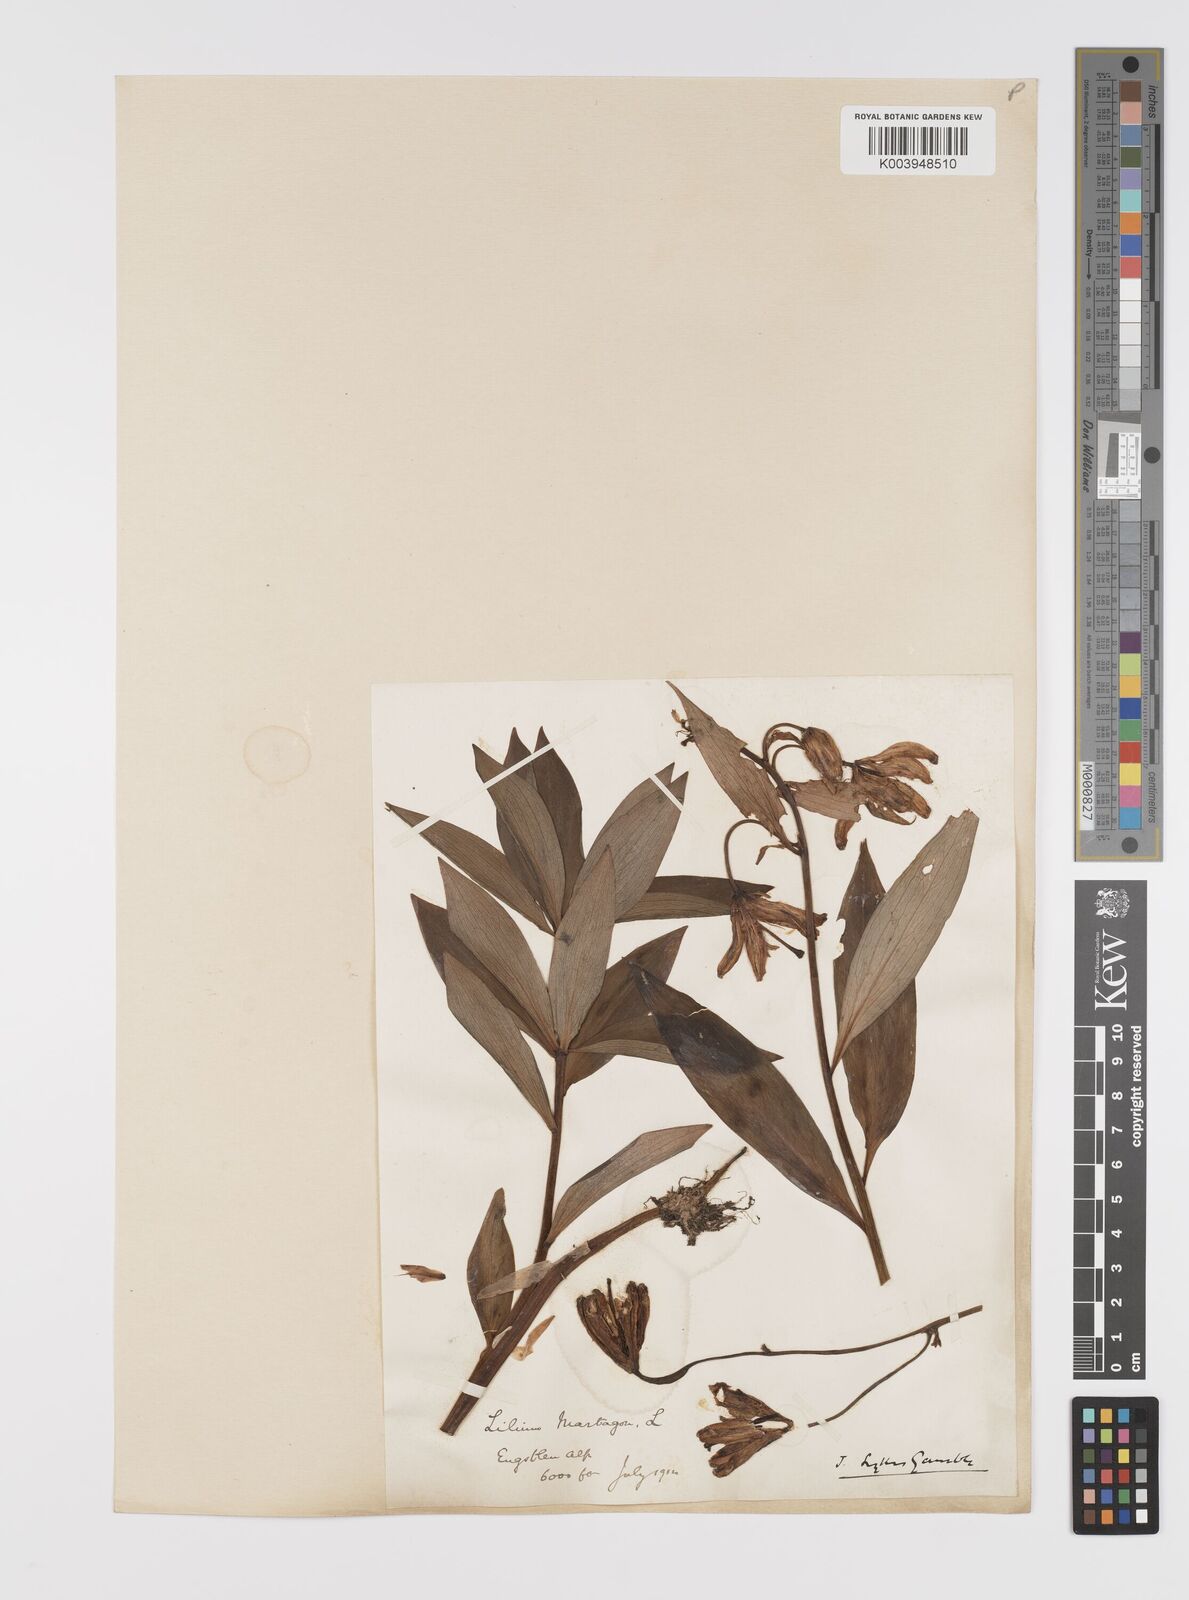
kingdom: Plantae
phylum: Tracheophyta
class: Liliopsida
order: Liliales
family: Liliaceae
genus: Lilium
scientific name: Lilium martagon
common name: Martagon lily
